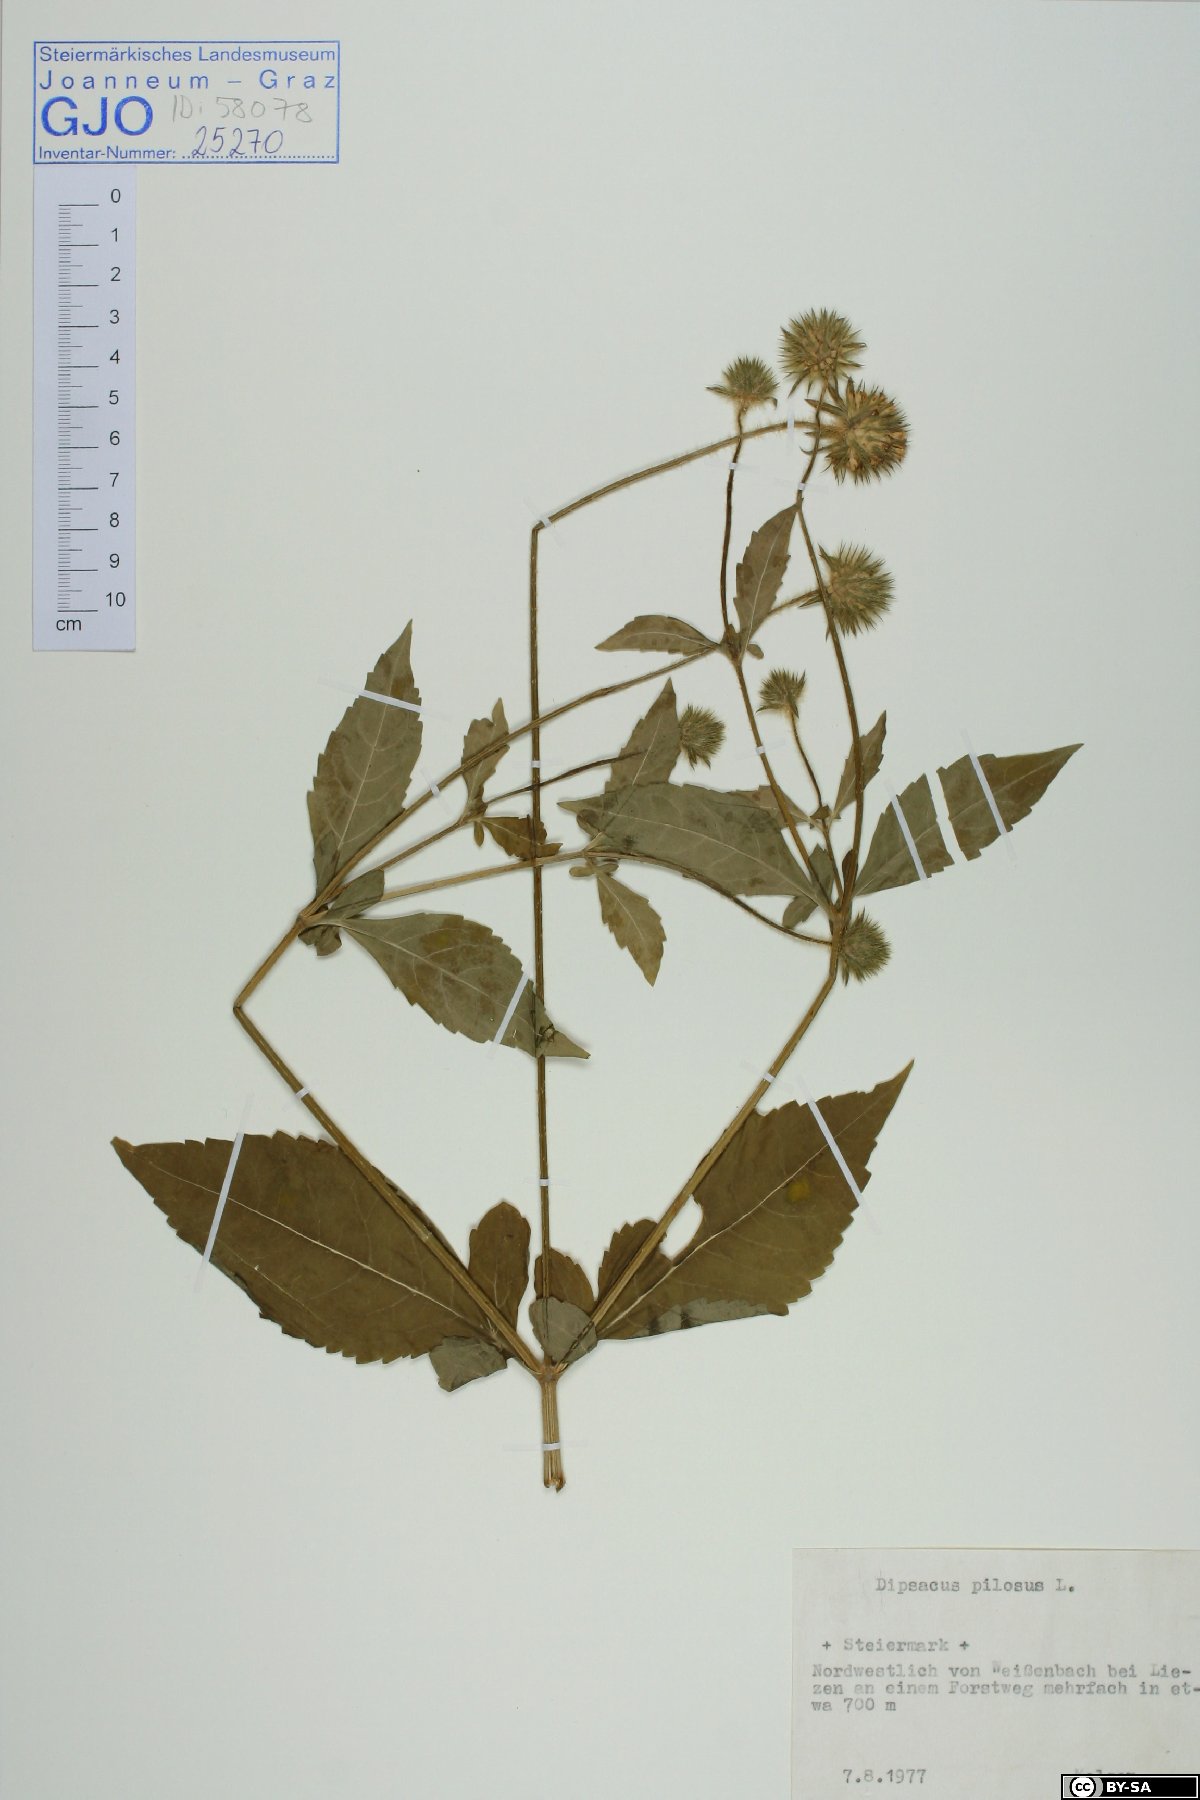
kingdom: Plantae
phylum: Tracheophyta
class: Magnoliopsida
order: Dipsacales
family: Caprifoliaceae
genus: Dipsacus
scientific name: Dipsacus pilosus
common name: Small teasel
